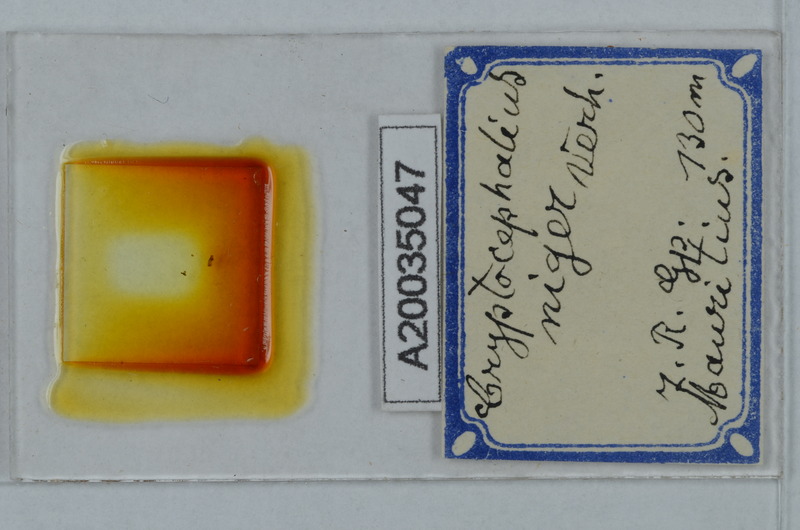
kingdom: Animalia
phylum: Arthropoda
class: Diplopoda
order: Polydesmida
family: Cryptodesmidae
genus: Cryptodesmus
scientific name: Cryptodesmus
